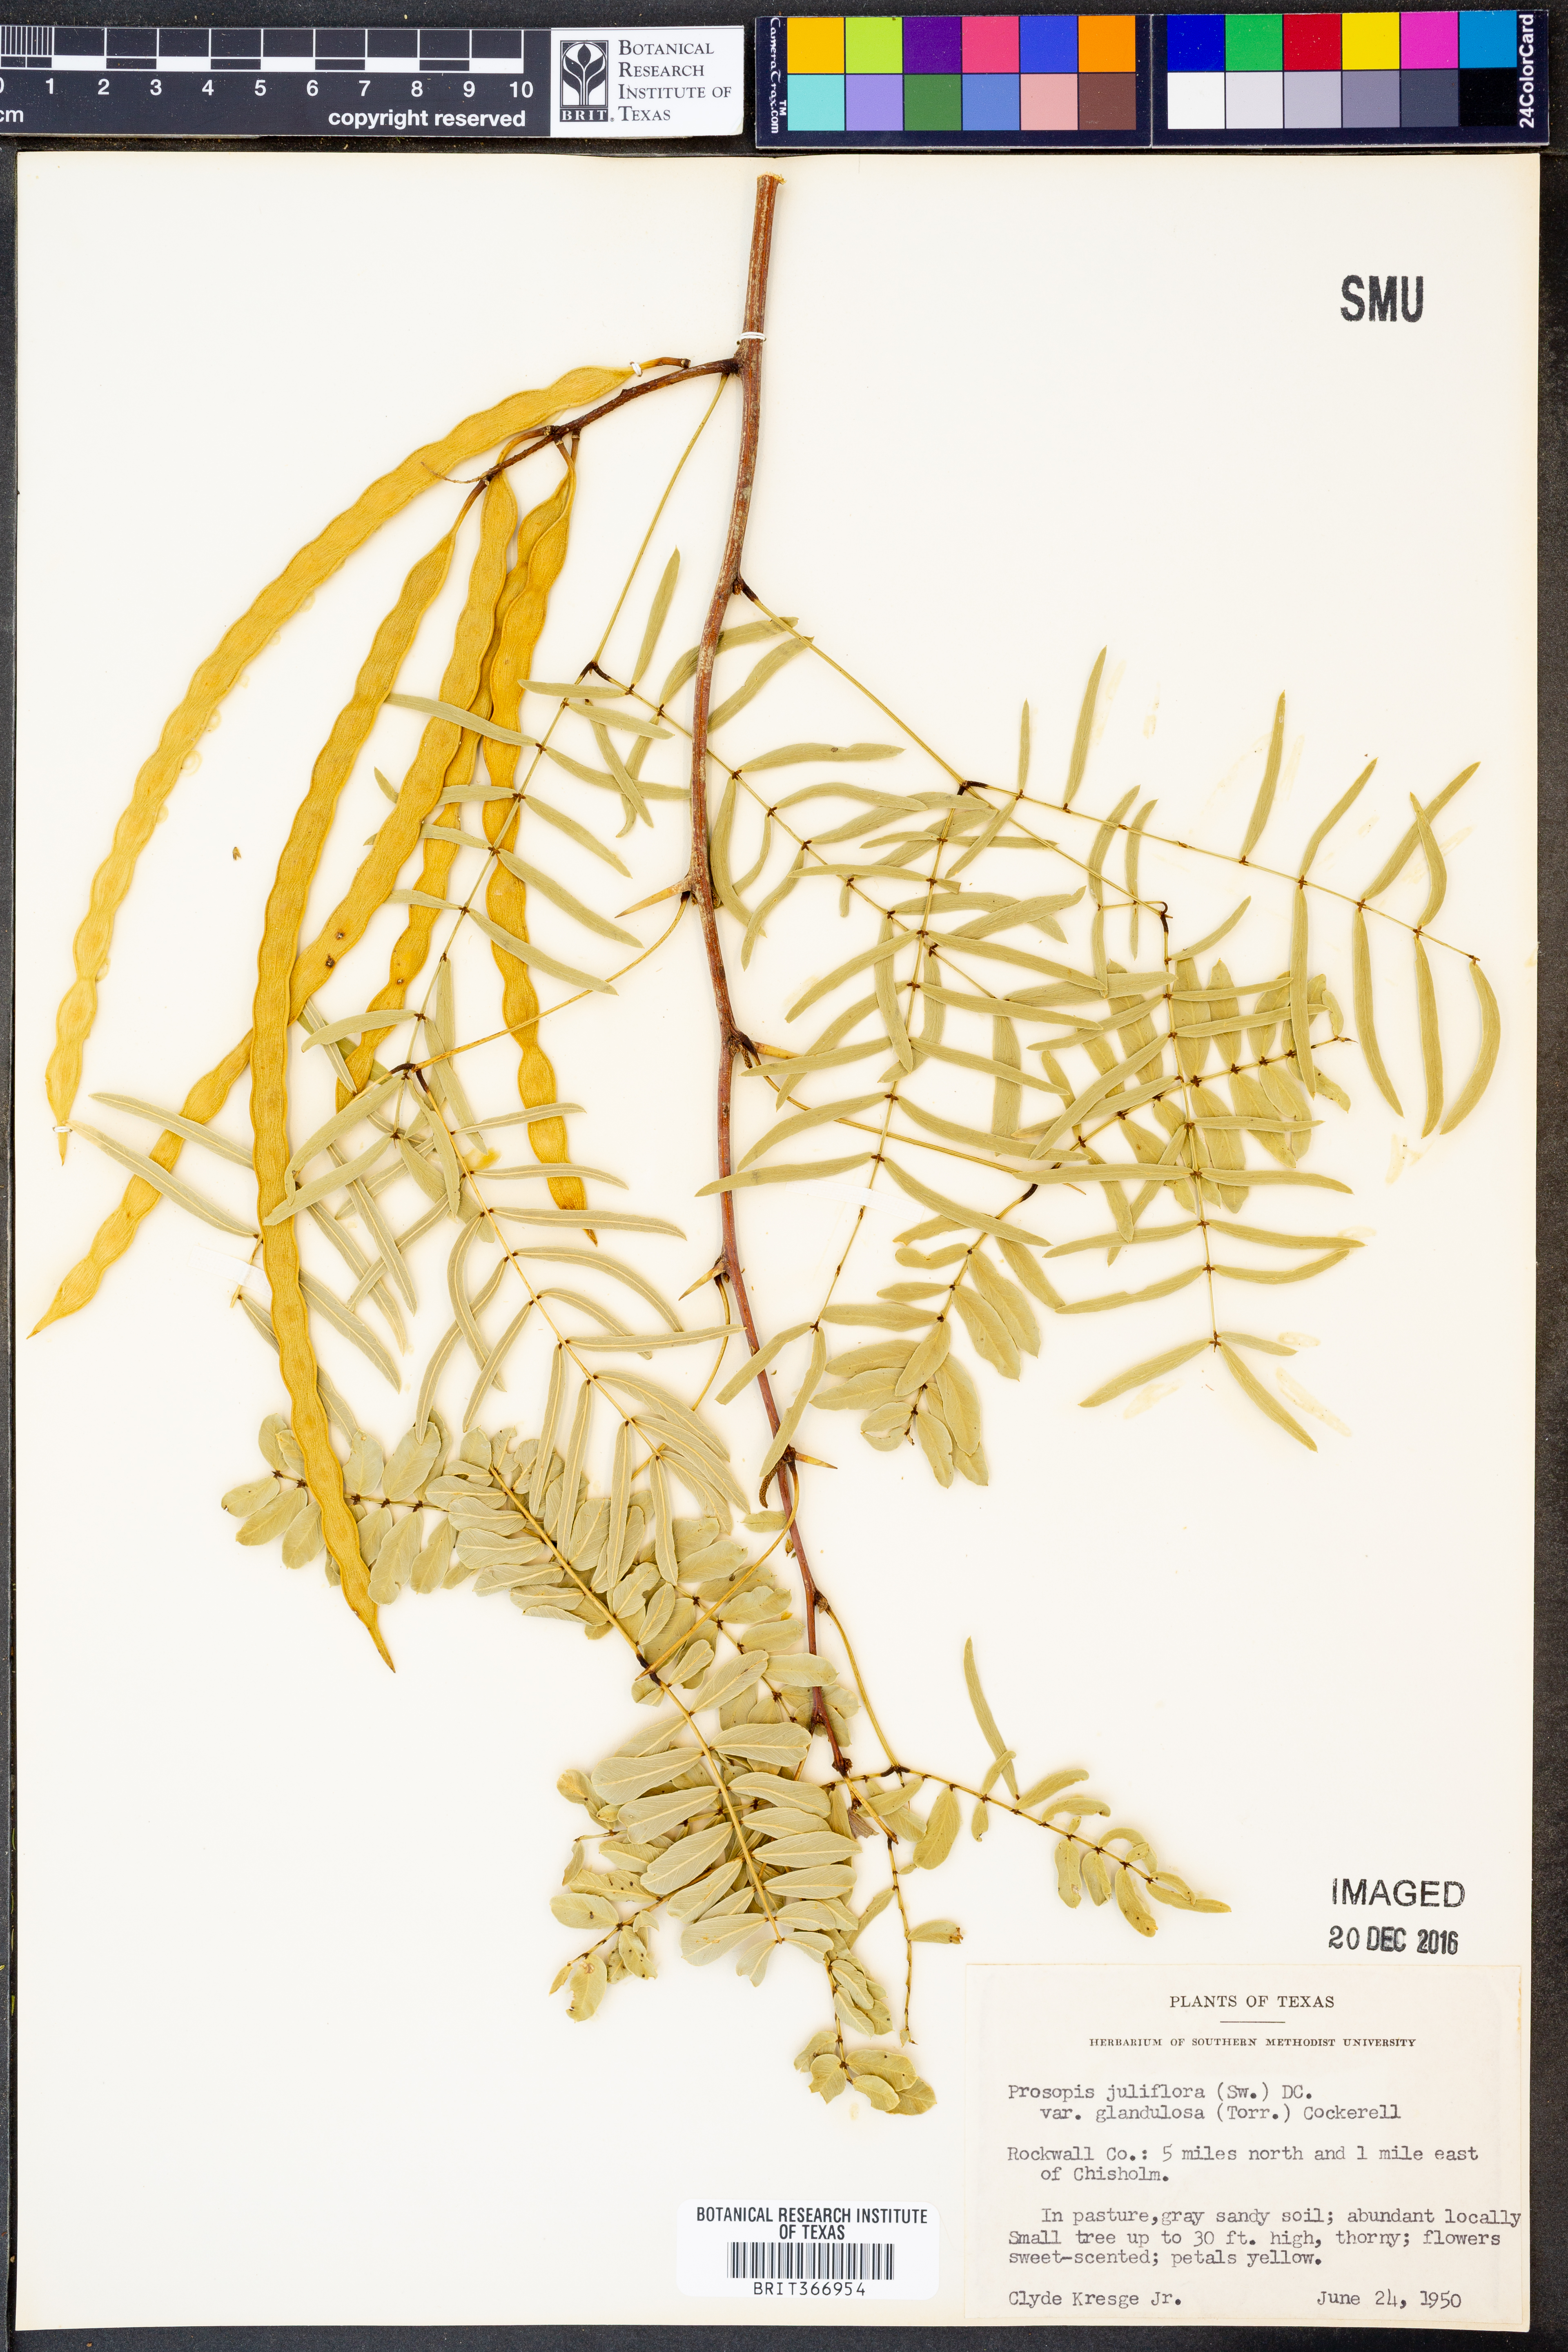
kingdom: Plantae
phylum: Tracheophyta
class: Magnoliopsida
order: Fabales
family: Fabaceae
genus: Prosopis
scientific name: Prosopis glandulosa
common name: Honey mesquite
